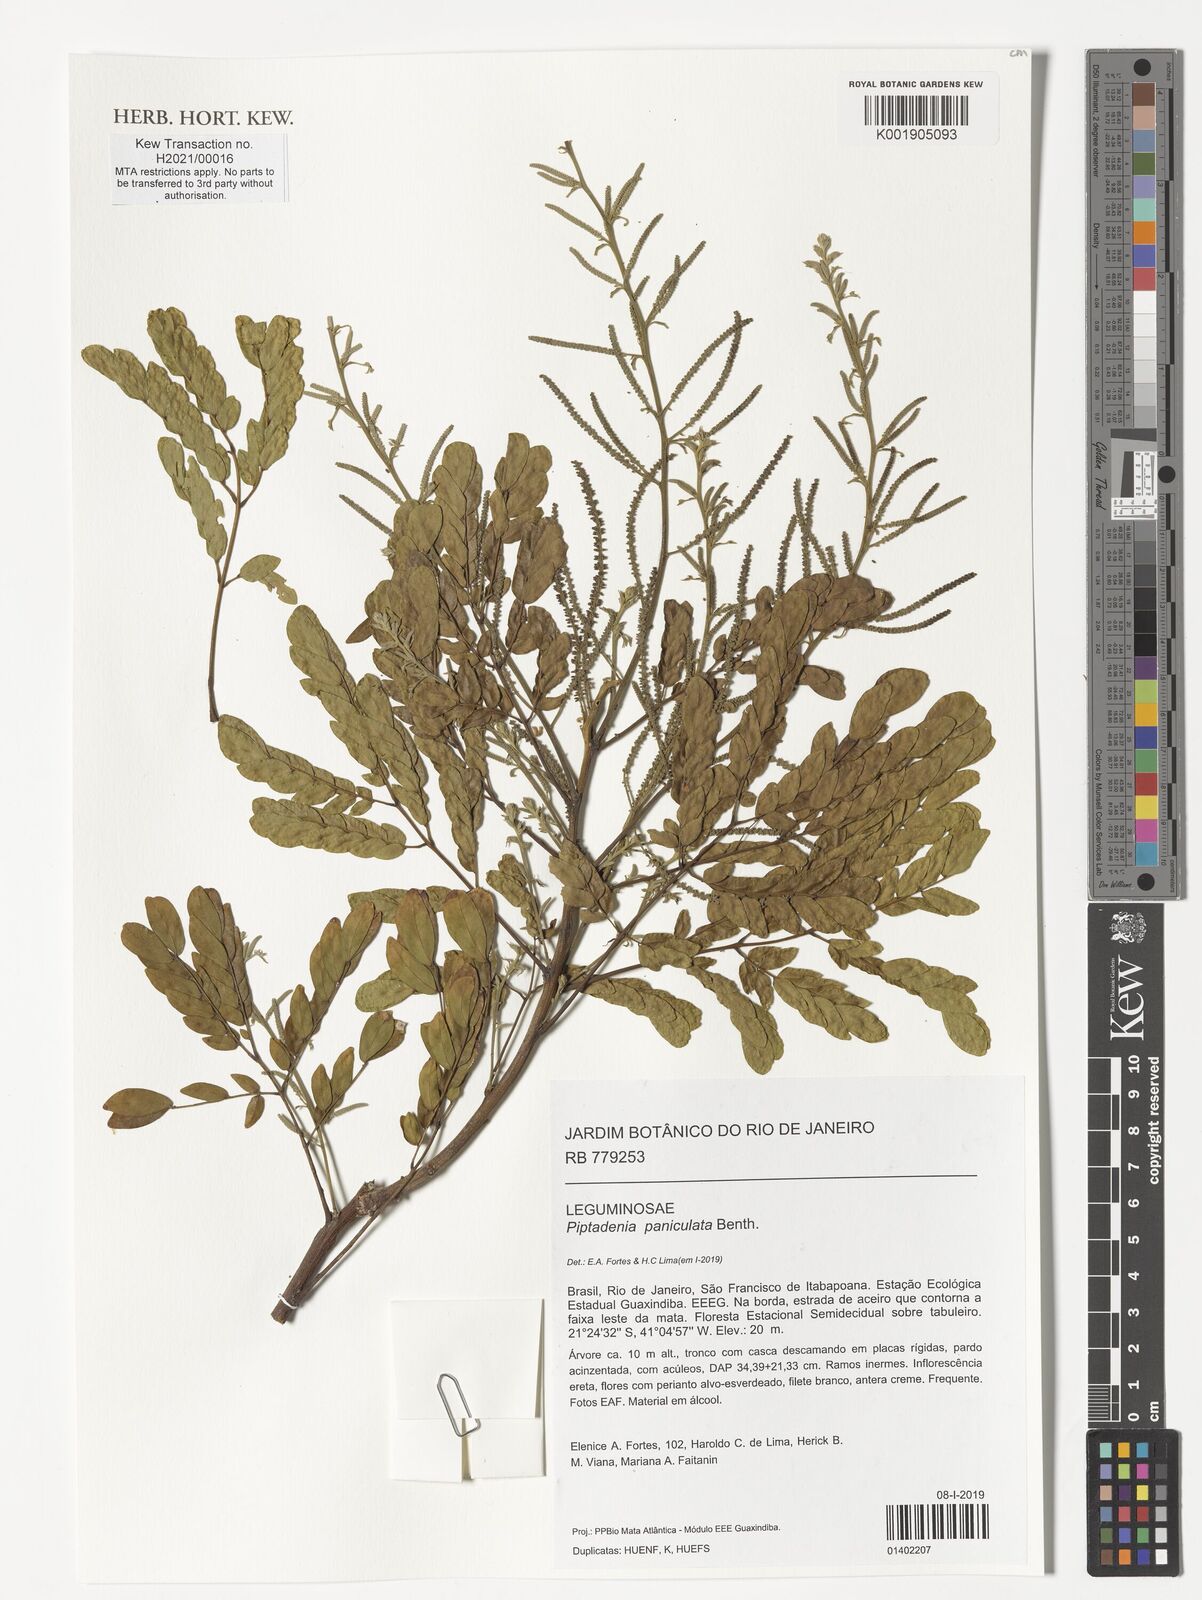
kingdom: Plantae
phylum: Tracheophyta
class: Magnoliopsida
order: Fabales
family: Fabaceae
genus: Piptadenia
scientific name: Piptadenia paniculata
